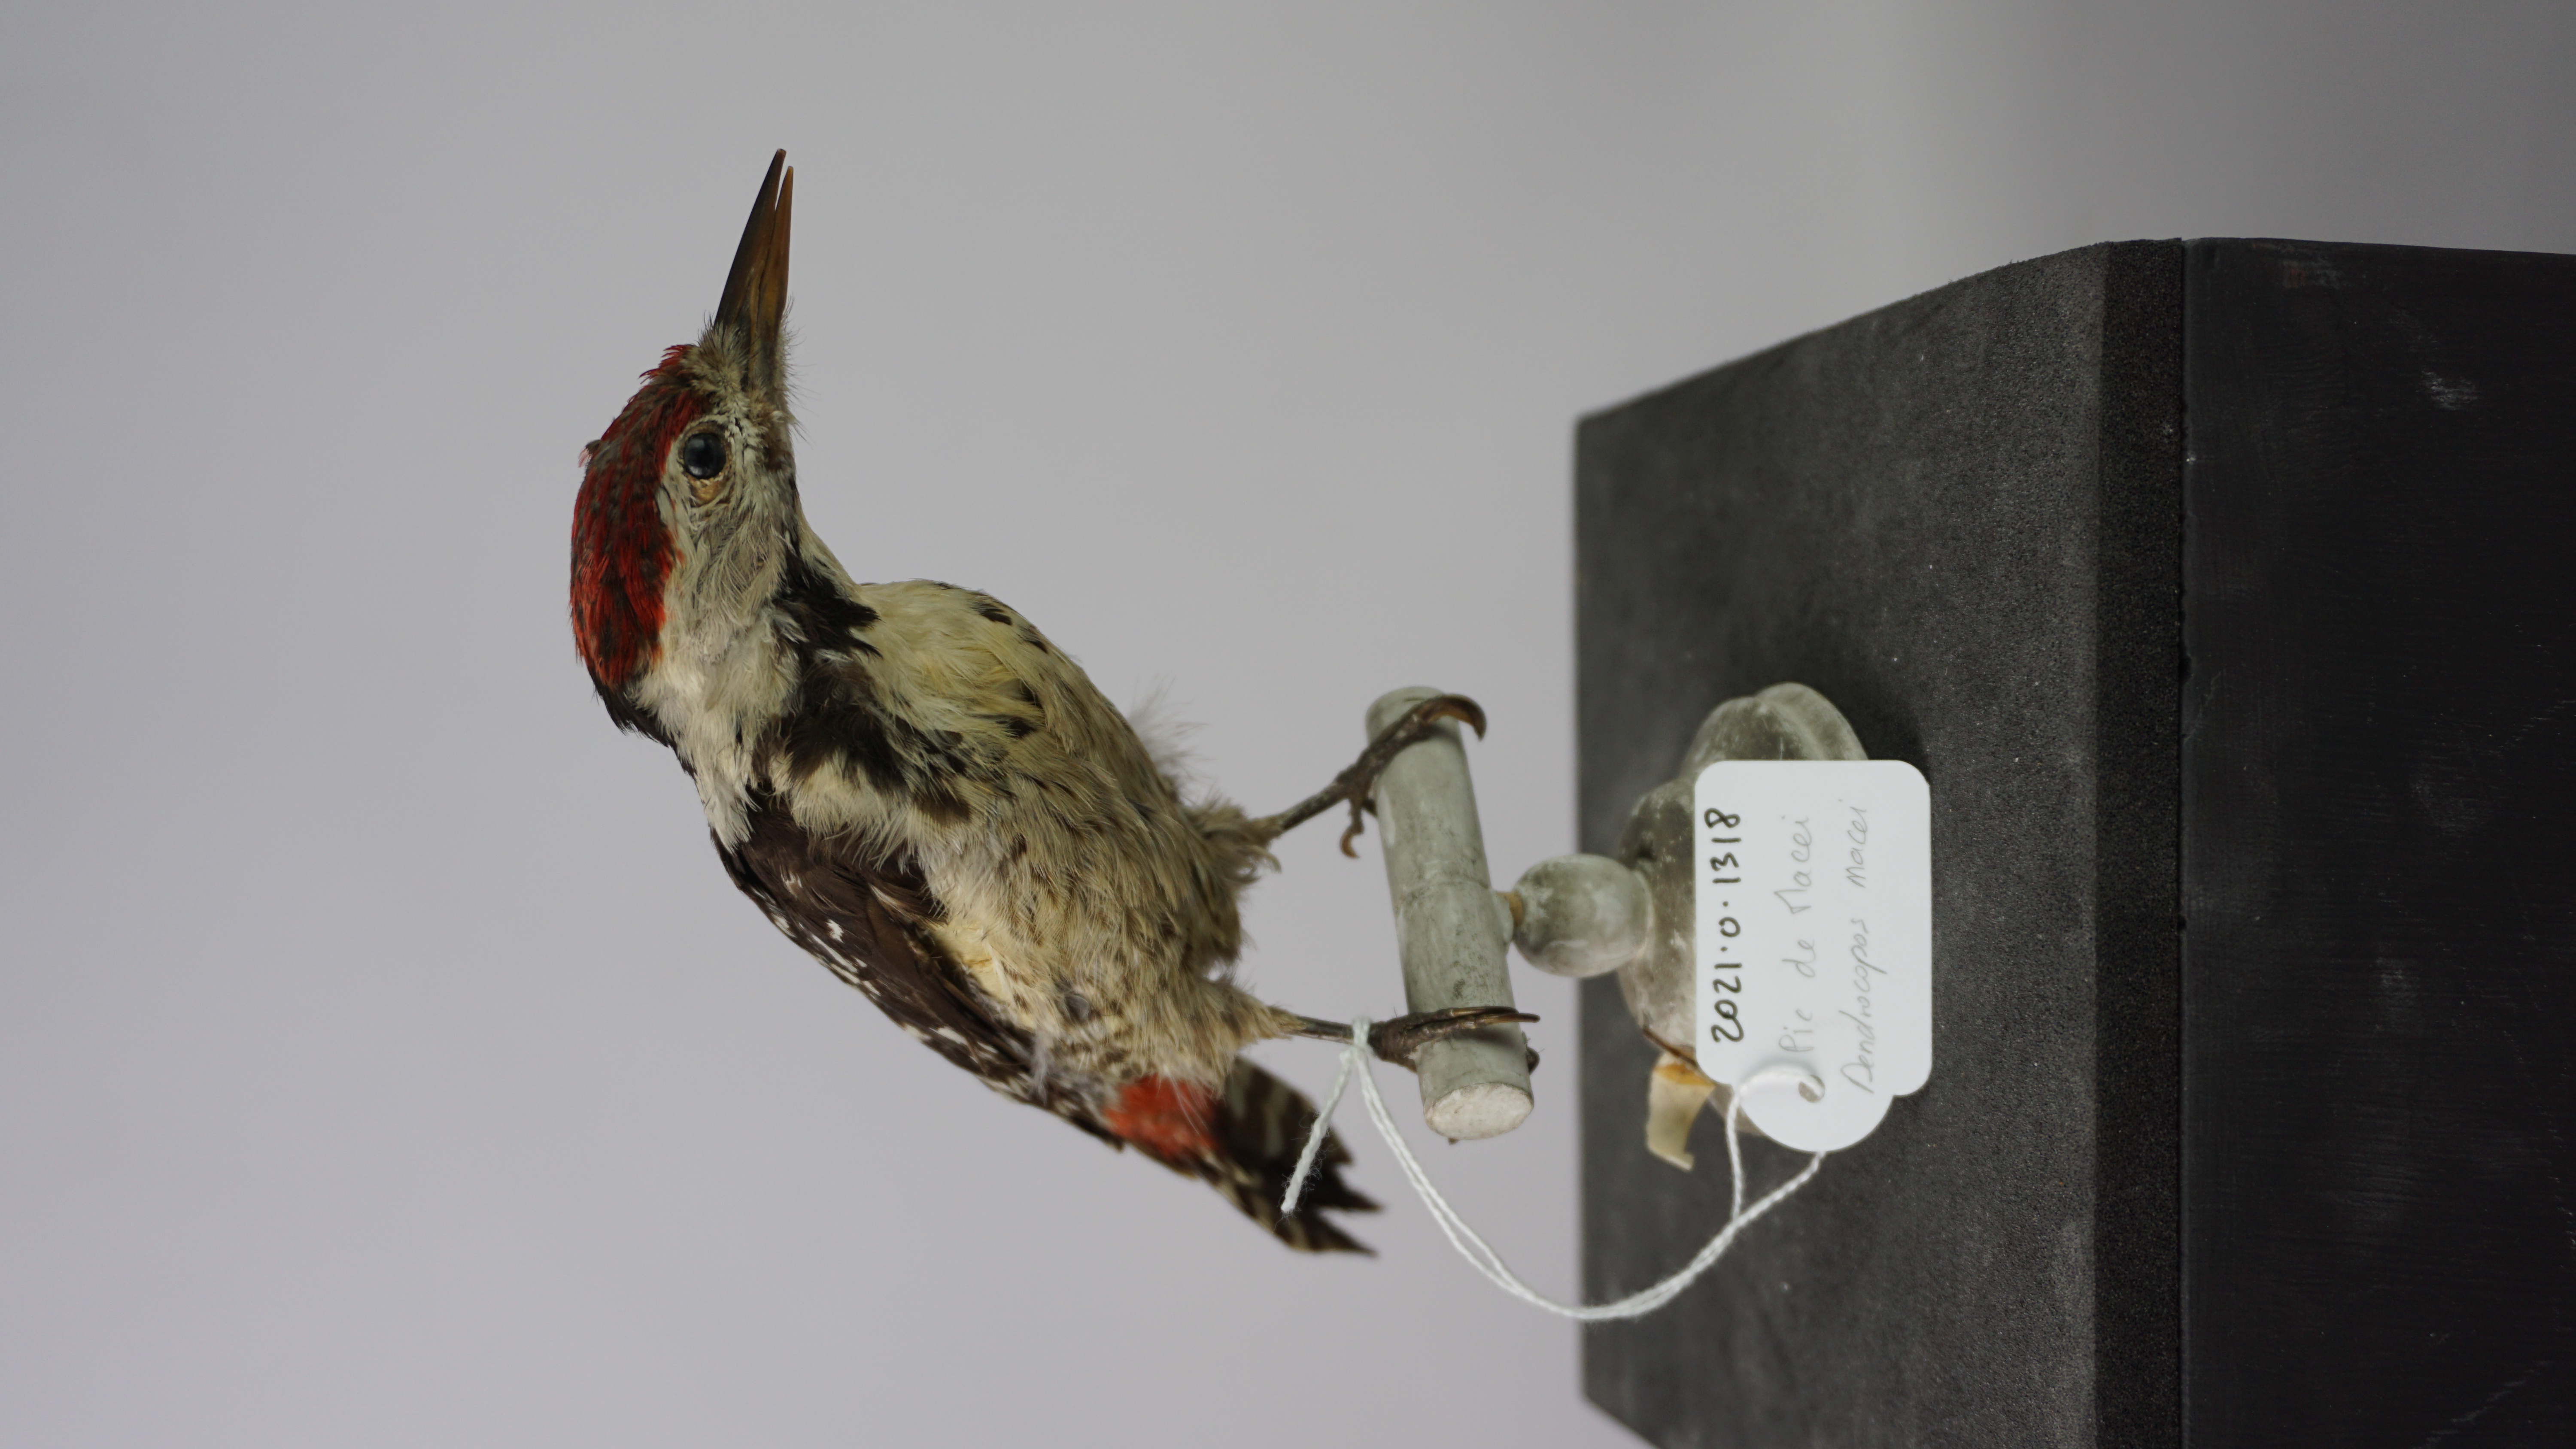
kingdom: Animalia
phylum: Chordata
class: Aves
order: Piciformes
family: Picidae
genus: Dendrocopos
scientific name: Dendrocopos macei
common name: Fulvous-breasted woodpecker
